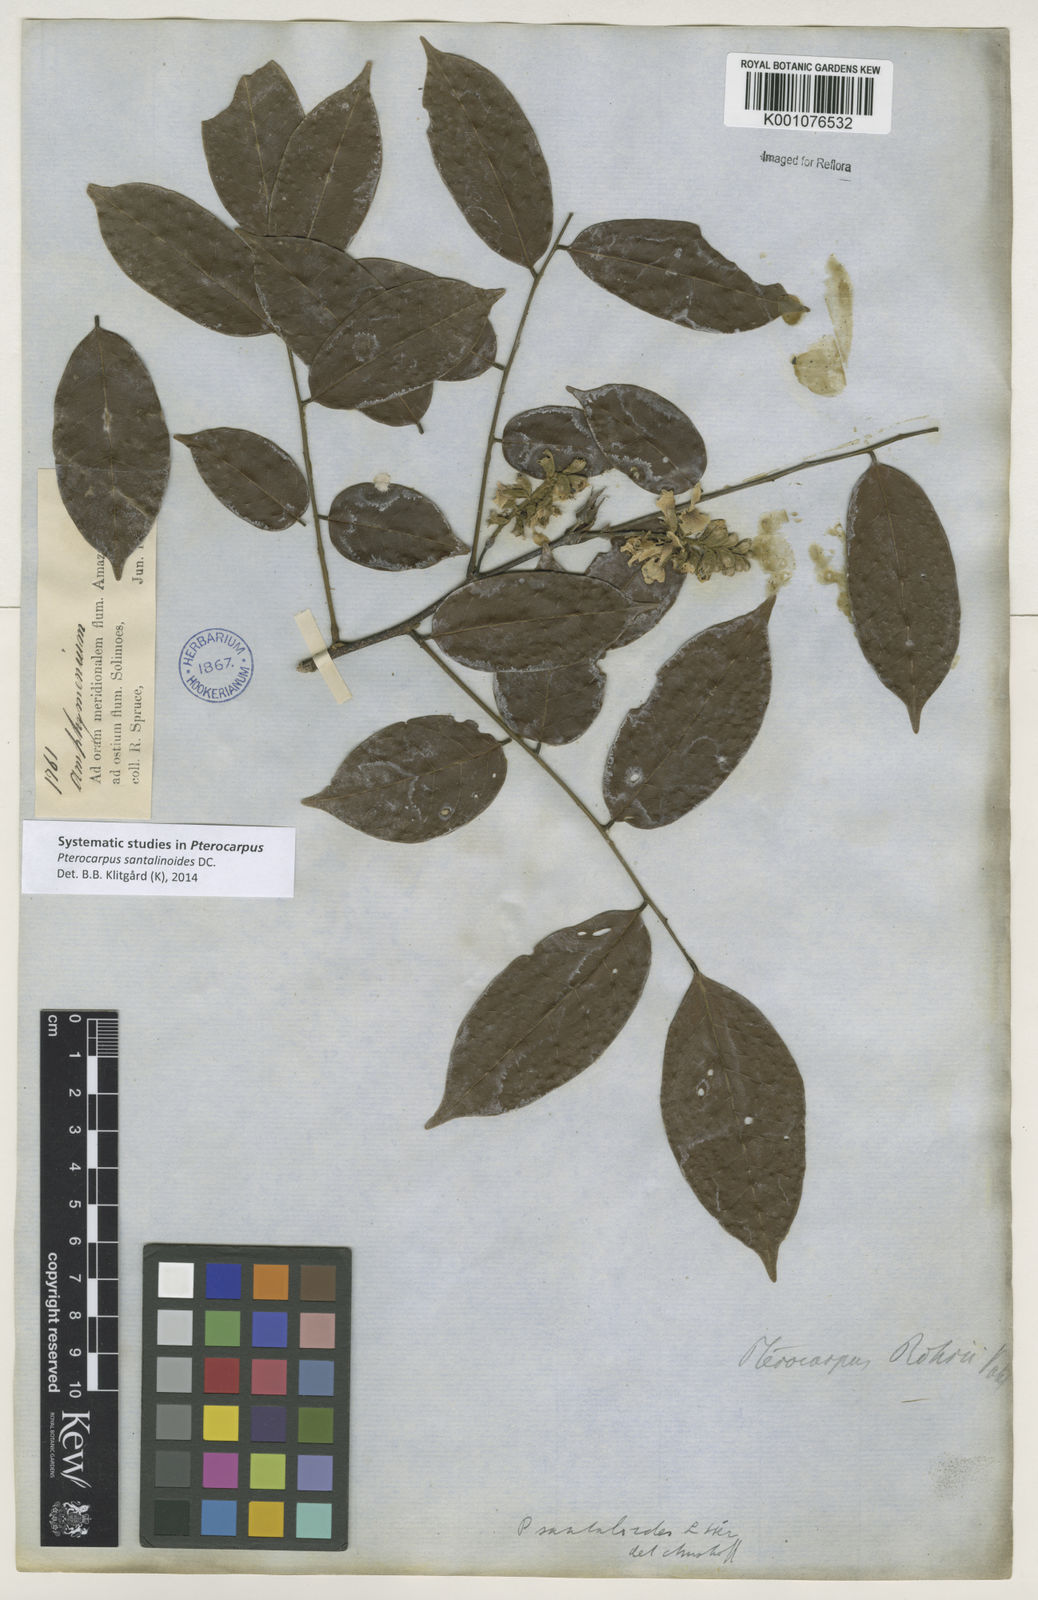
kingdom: Plantae
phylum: Tracheophyta
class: Magnoliopsida
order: Fabales
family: Fabaceae
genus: Pterocarpus
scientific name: Pterocarpus santalinoides
